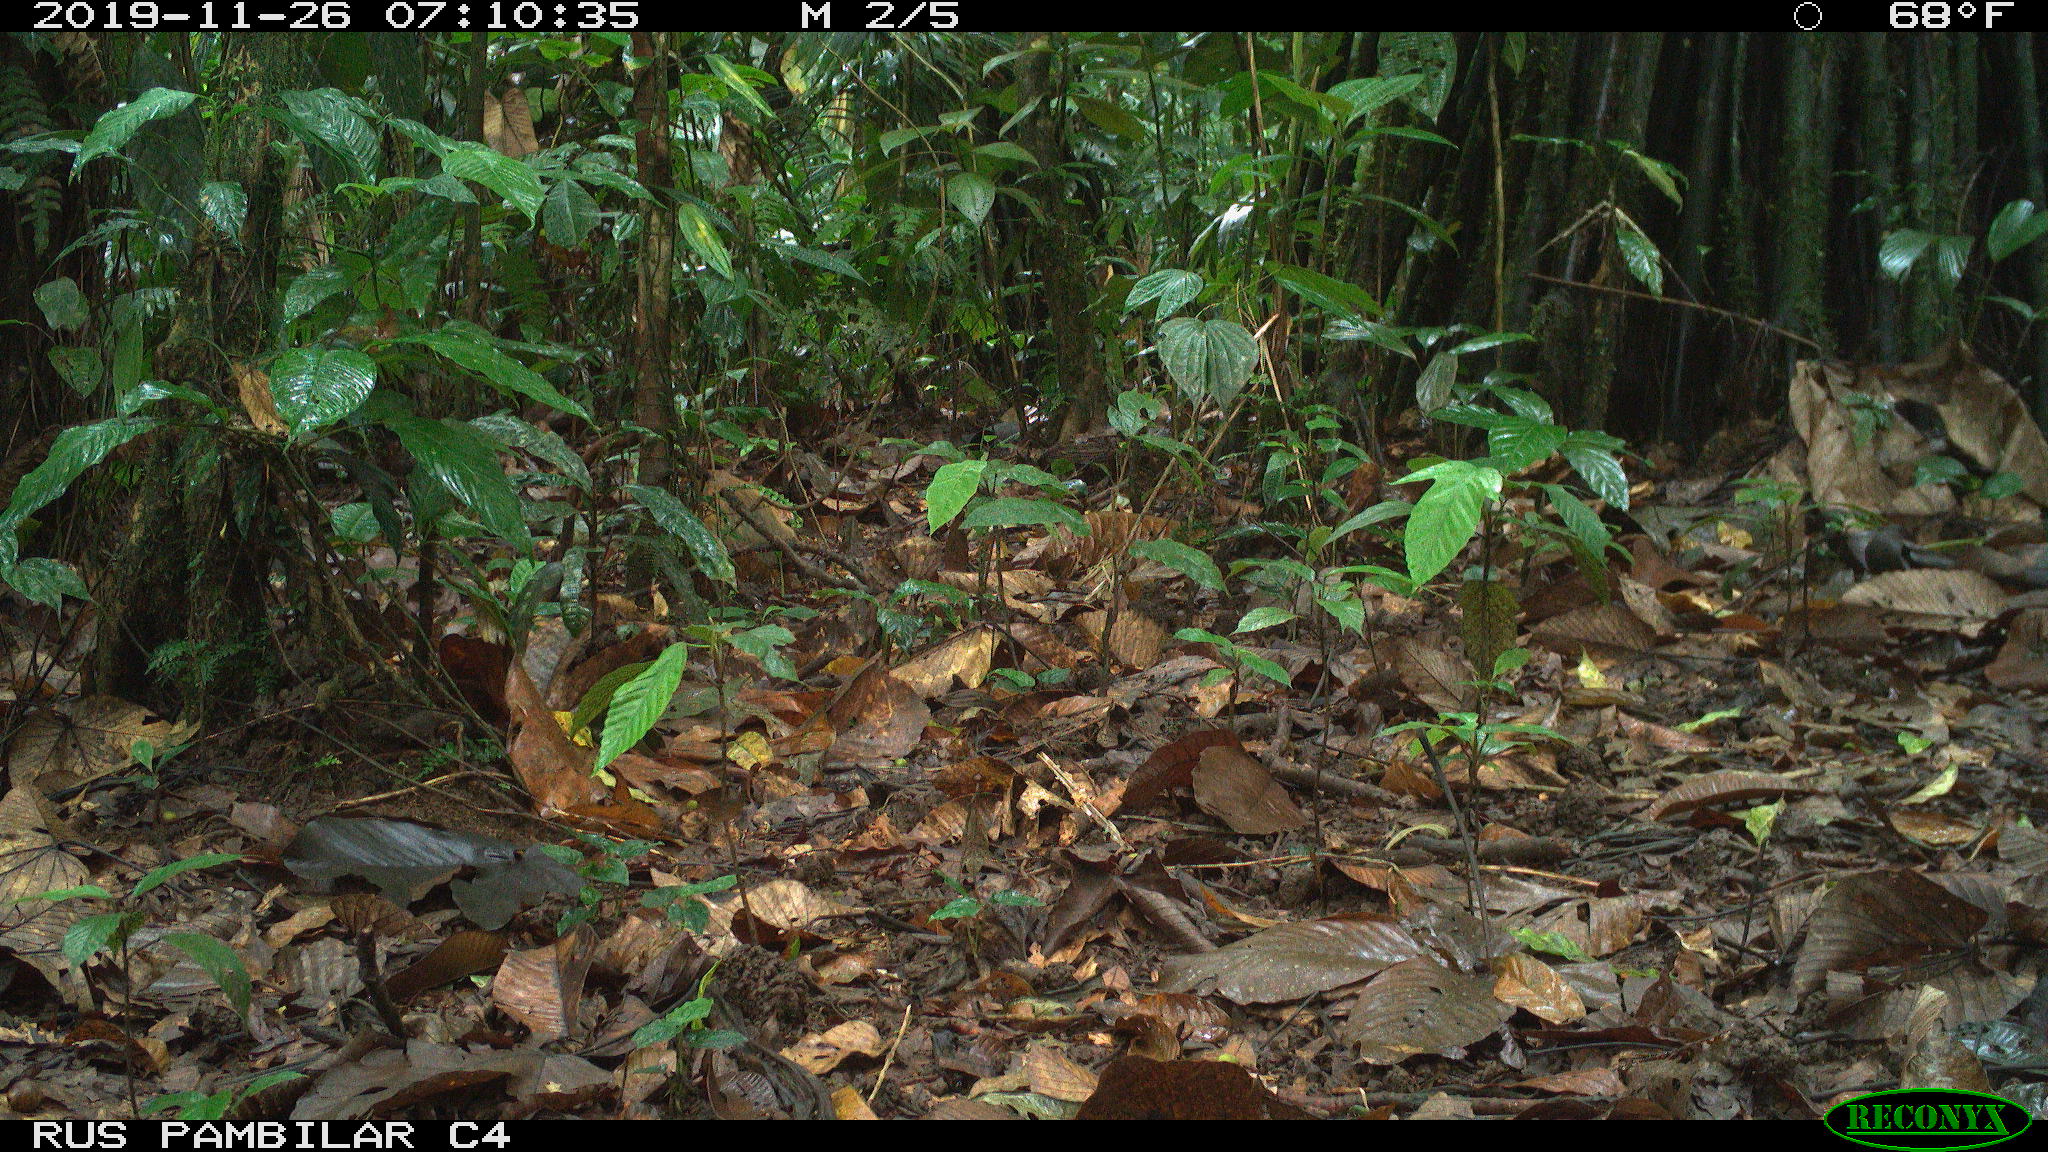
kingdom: Animalia
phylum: Chordata
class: Mammalia
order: Rodentia
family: Dasyproctidae
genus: Dasyprocta
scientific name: Dasyprocta punctata
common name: Central american agouti
